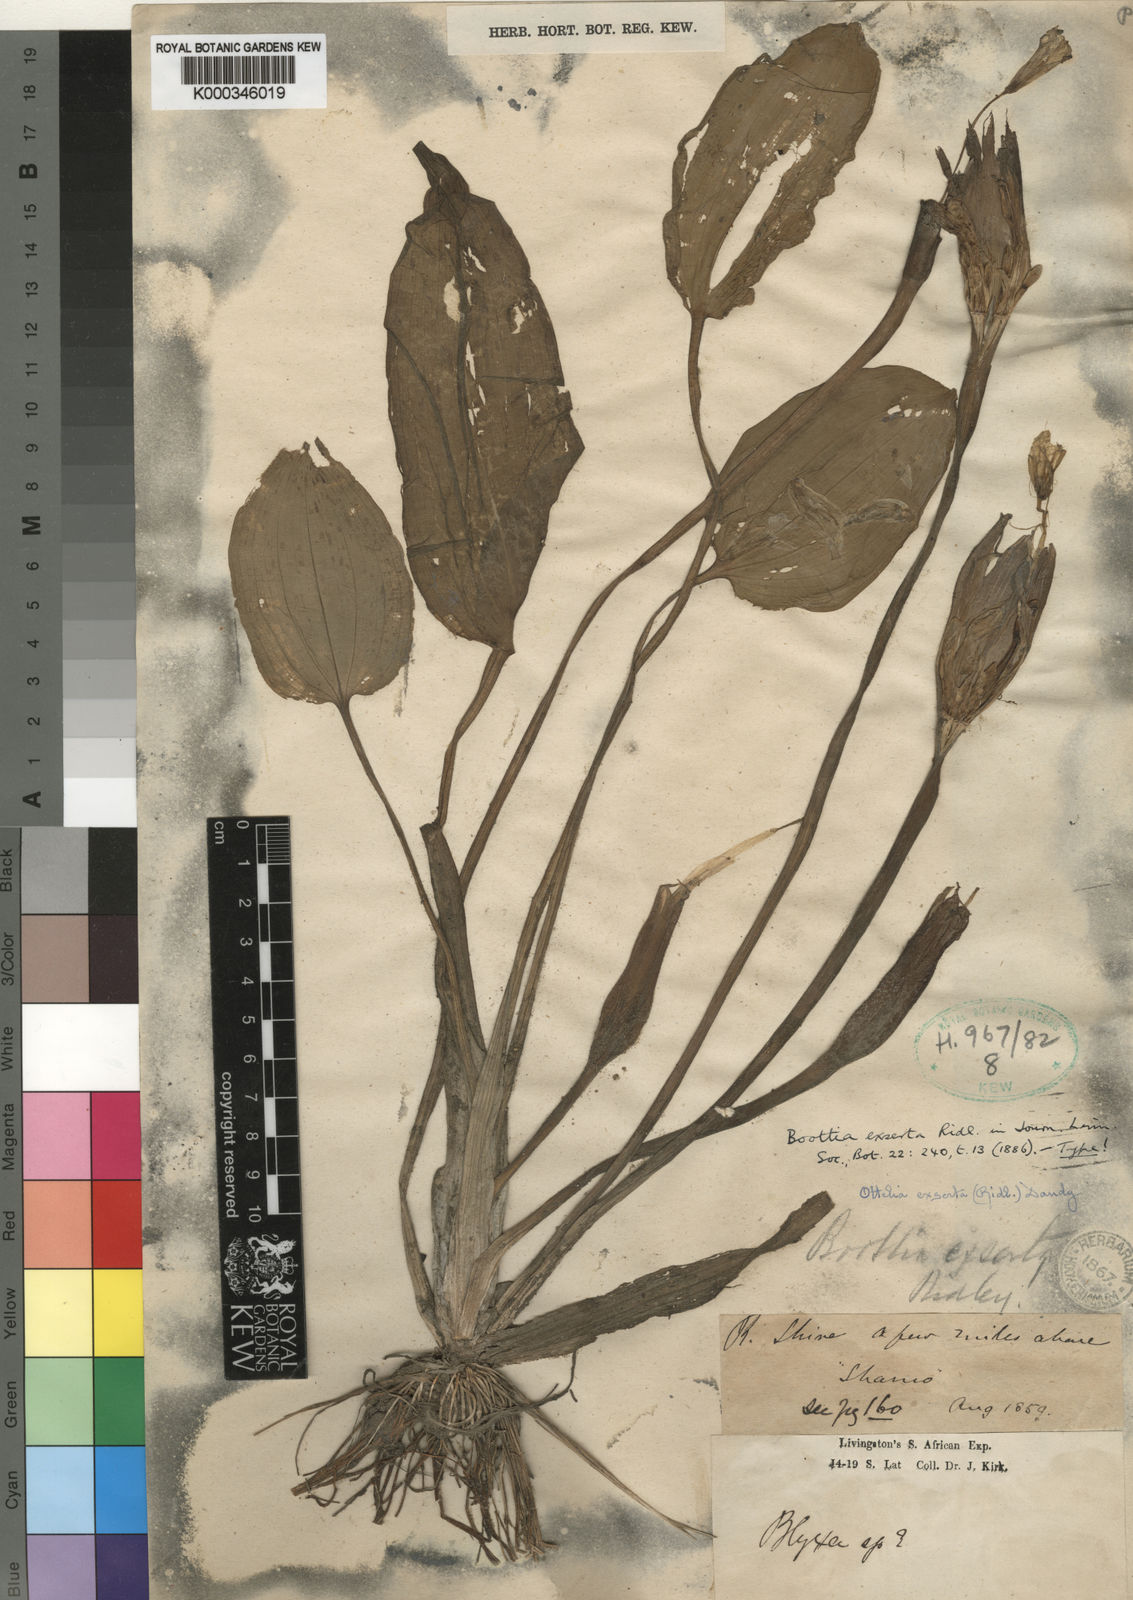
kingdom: Plantae
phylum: Tracheophyta
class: Liliopsida
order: Alismatales
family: Hydrocharitaceae
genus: Ottelia
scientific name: Ottelia exserta
